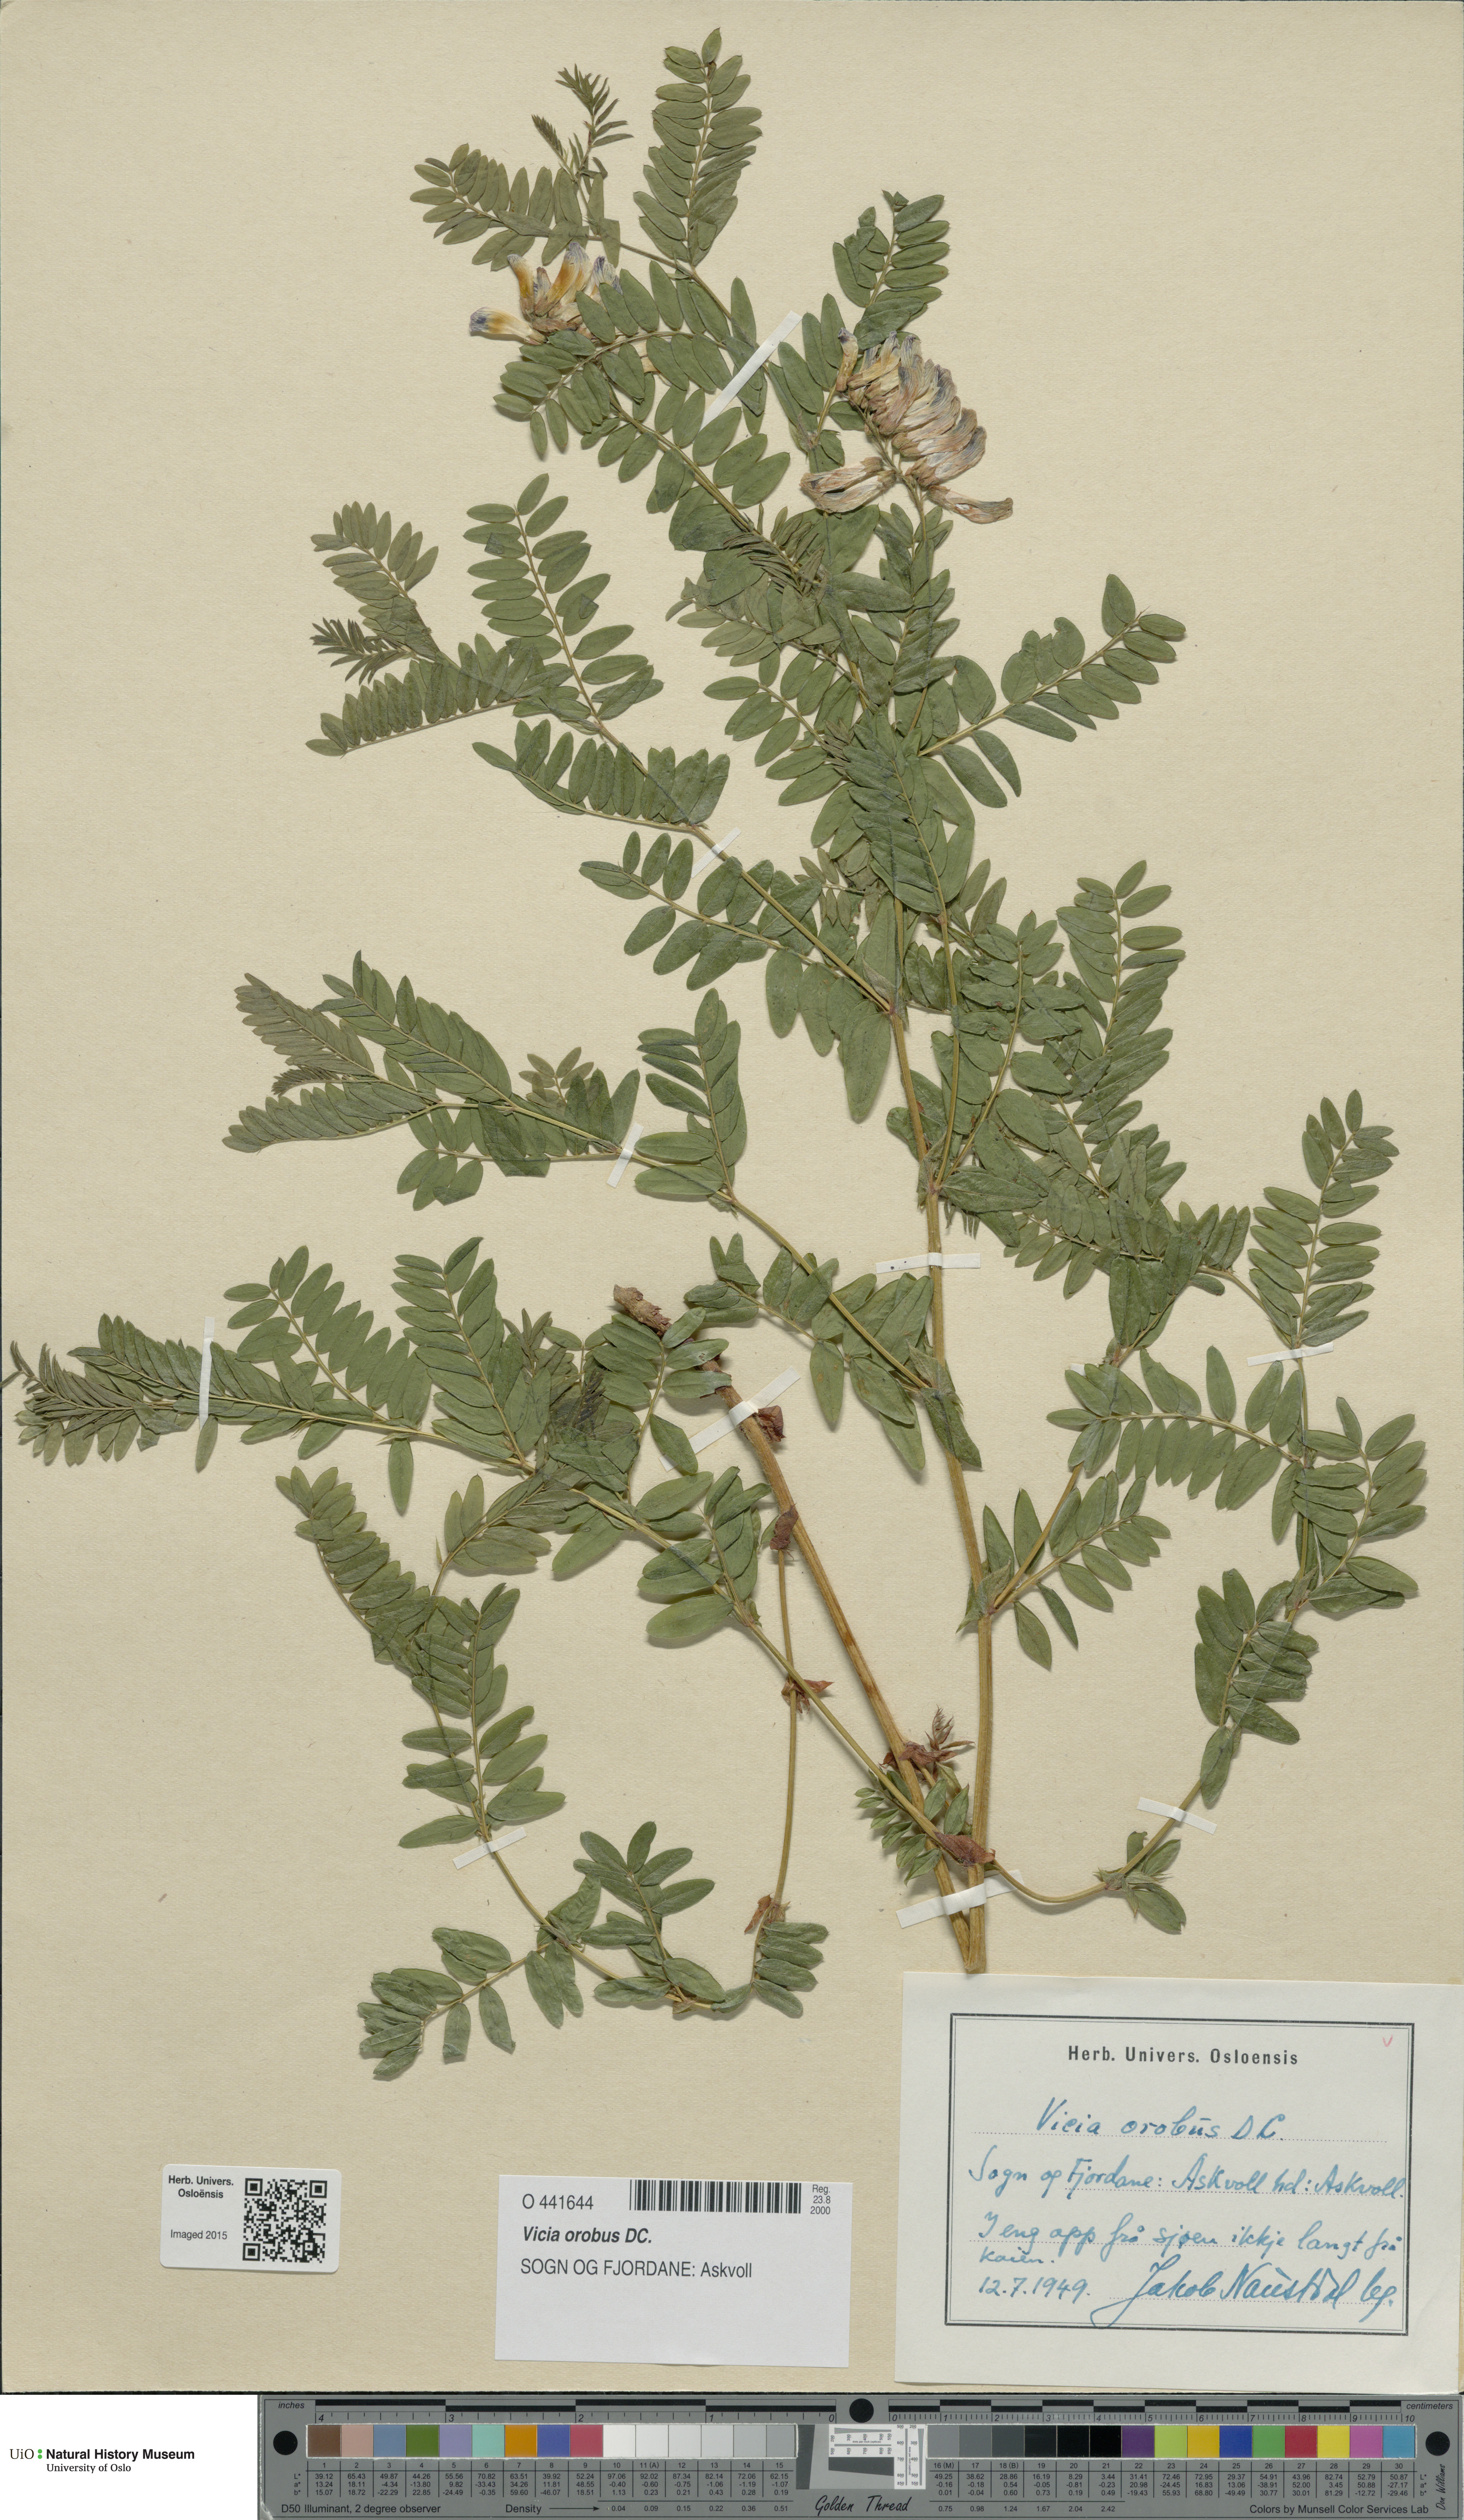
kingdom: Plantae
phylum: Tracheophyta
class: Magnoliopsida
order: Fabales
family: Fabaceae
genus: Vicia
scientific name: Vicia orobus
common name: Wood bitter-vetch
